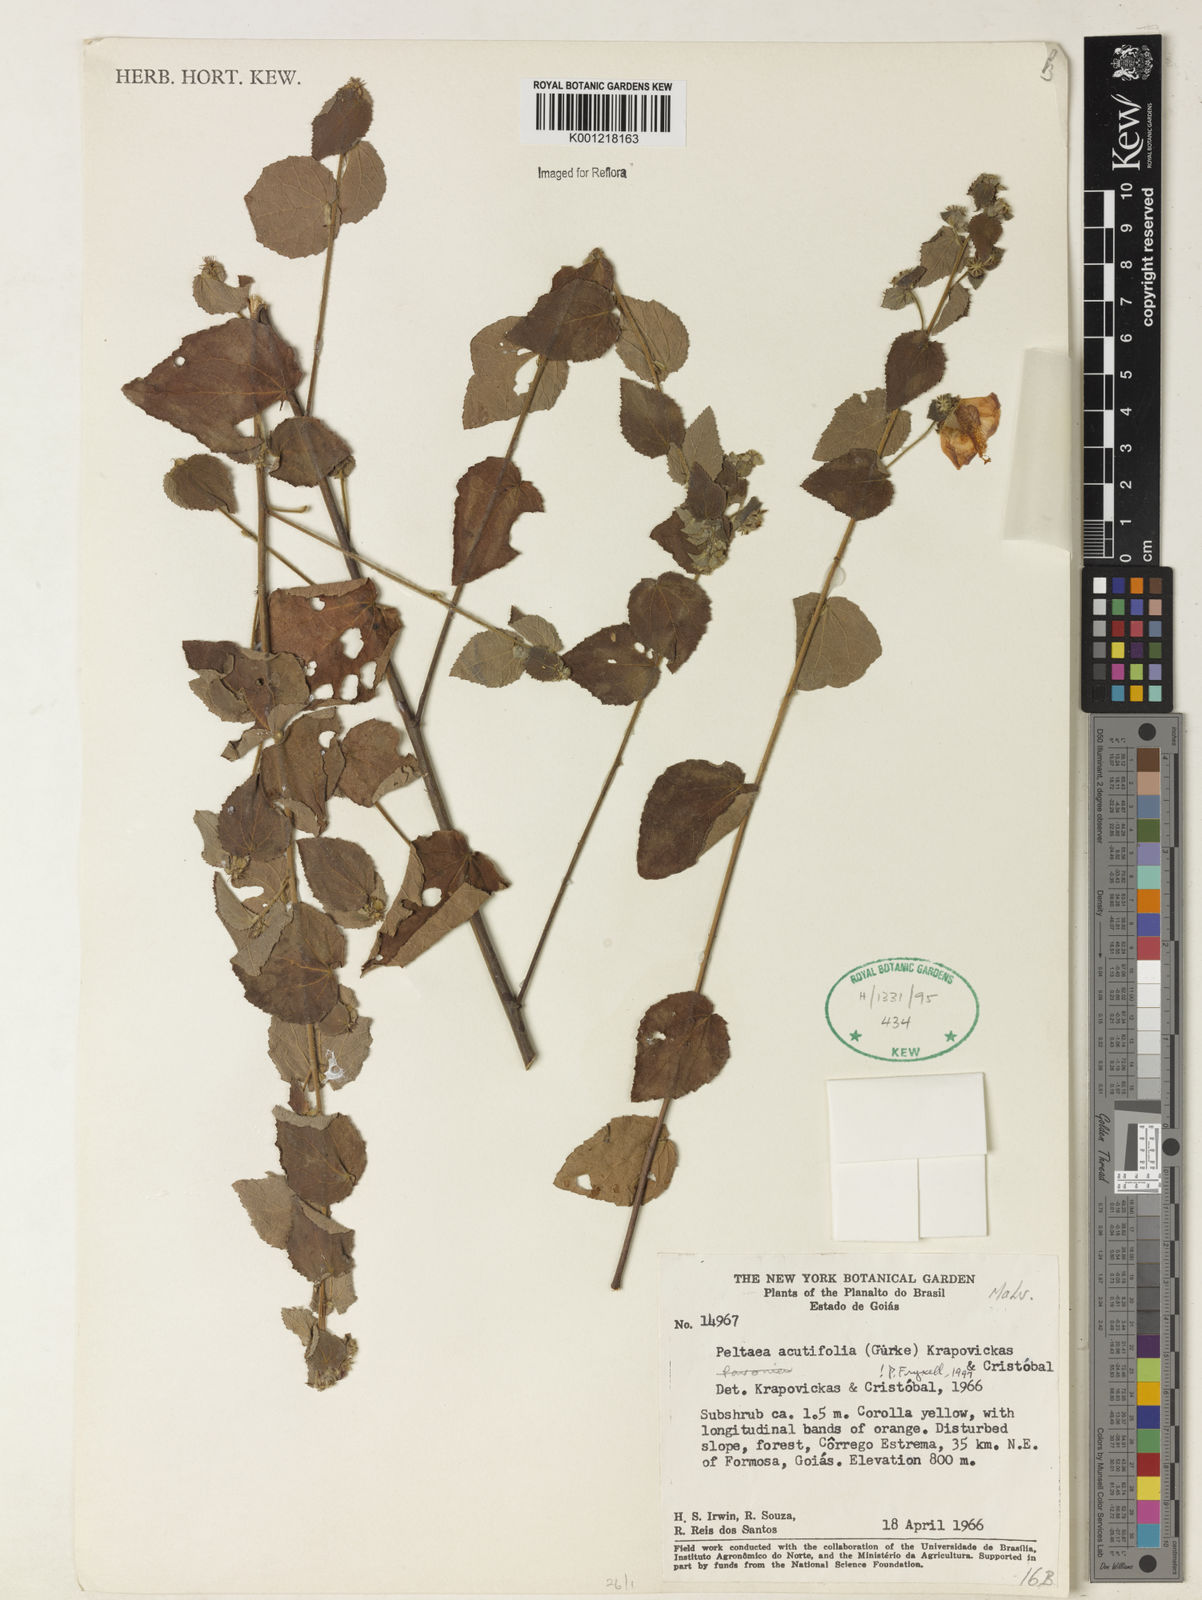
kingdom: Plantae
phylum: Tracheophyta
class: Magnoliopsida
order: Malvales
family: Malvaceae
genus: Peltaea
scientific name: Peltaea
